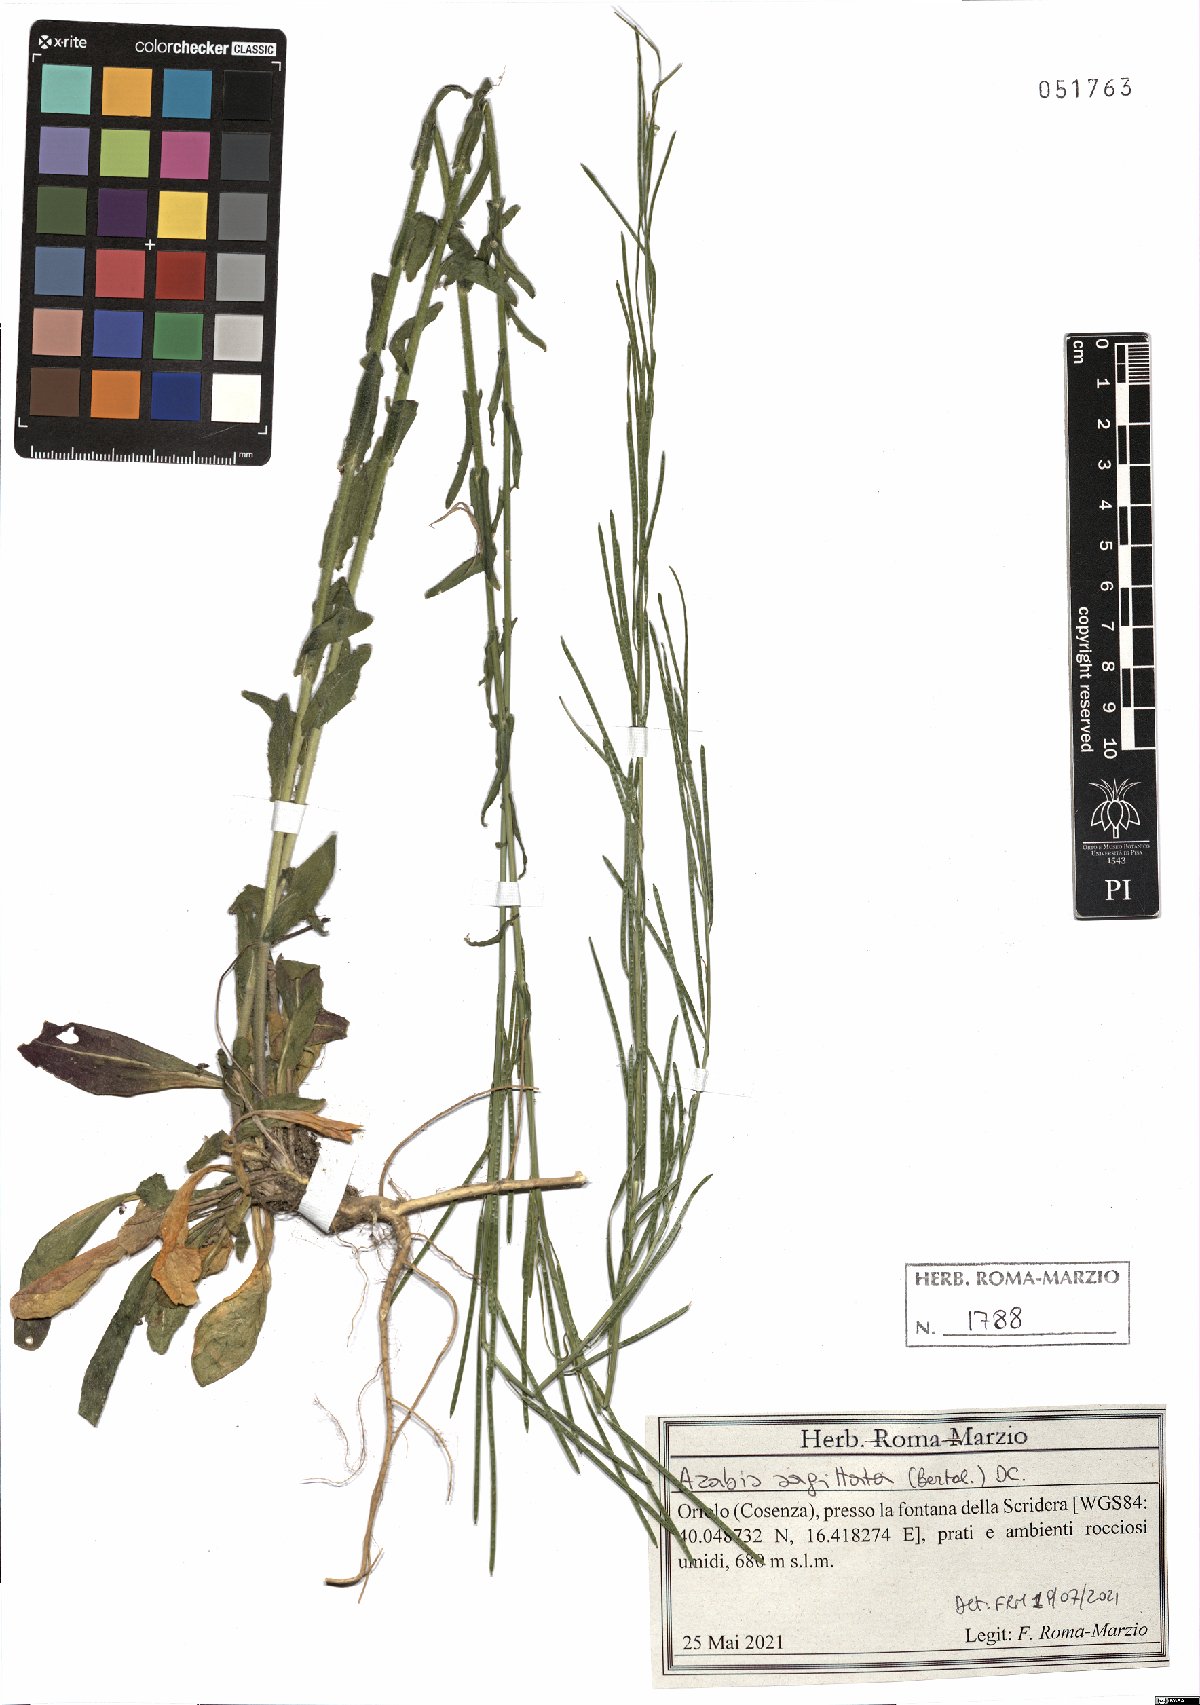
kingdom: Plantae
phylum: Tracheophyta
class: Magnoliopsida
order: Brassicales
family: Brassicaceae
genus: Arabis
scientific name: Arabis sagittata
